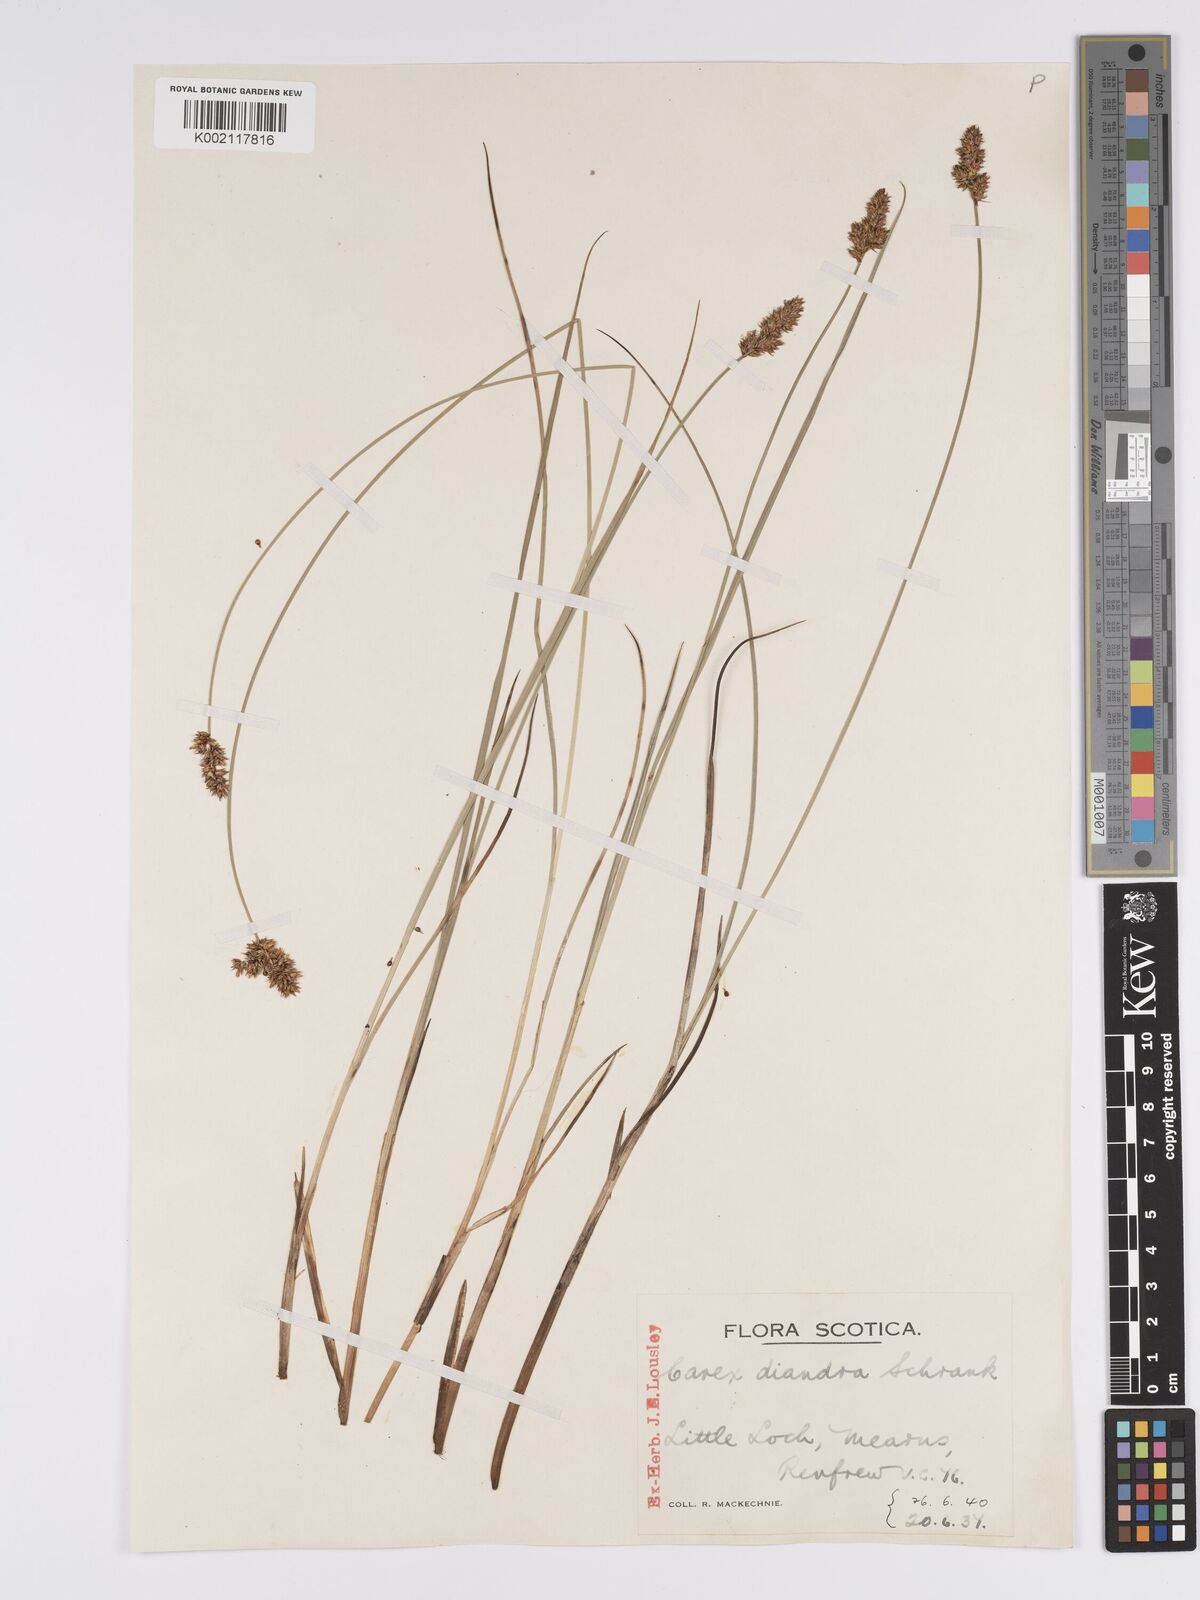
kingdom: Plantae
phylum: Tracheophyta
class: Liliopsida
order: Poales
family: Cyperaceae
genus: Carex
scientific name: Carex diandra
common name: Lesser tussock-sedge
